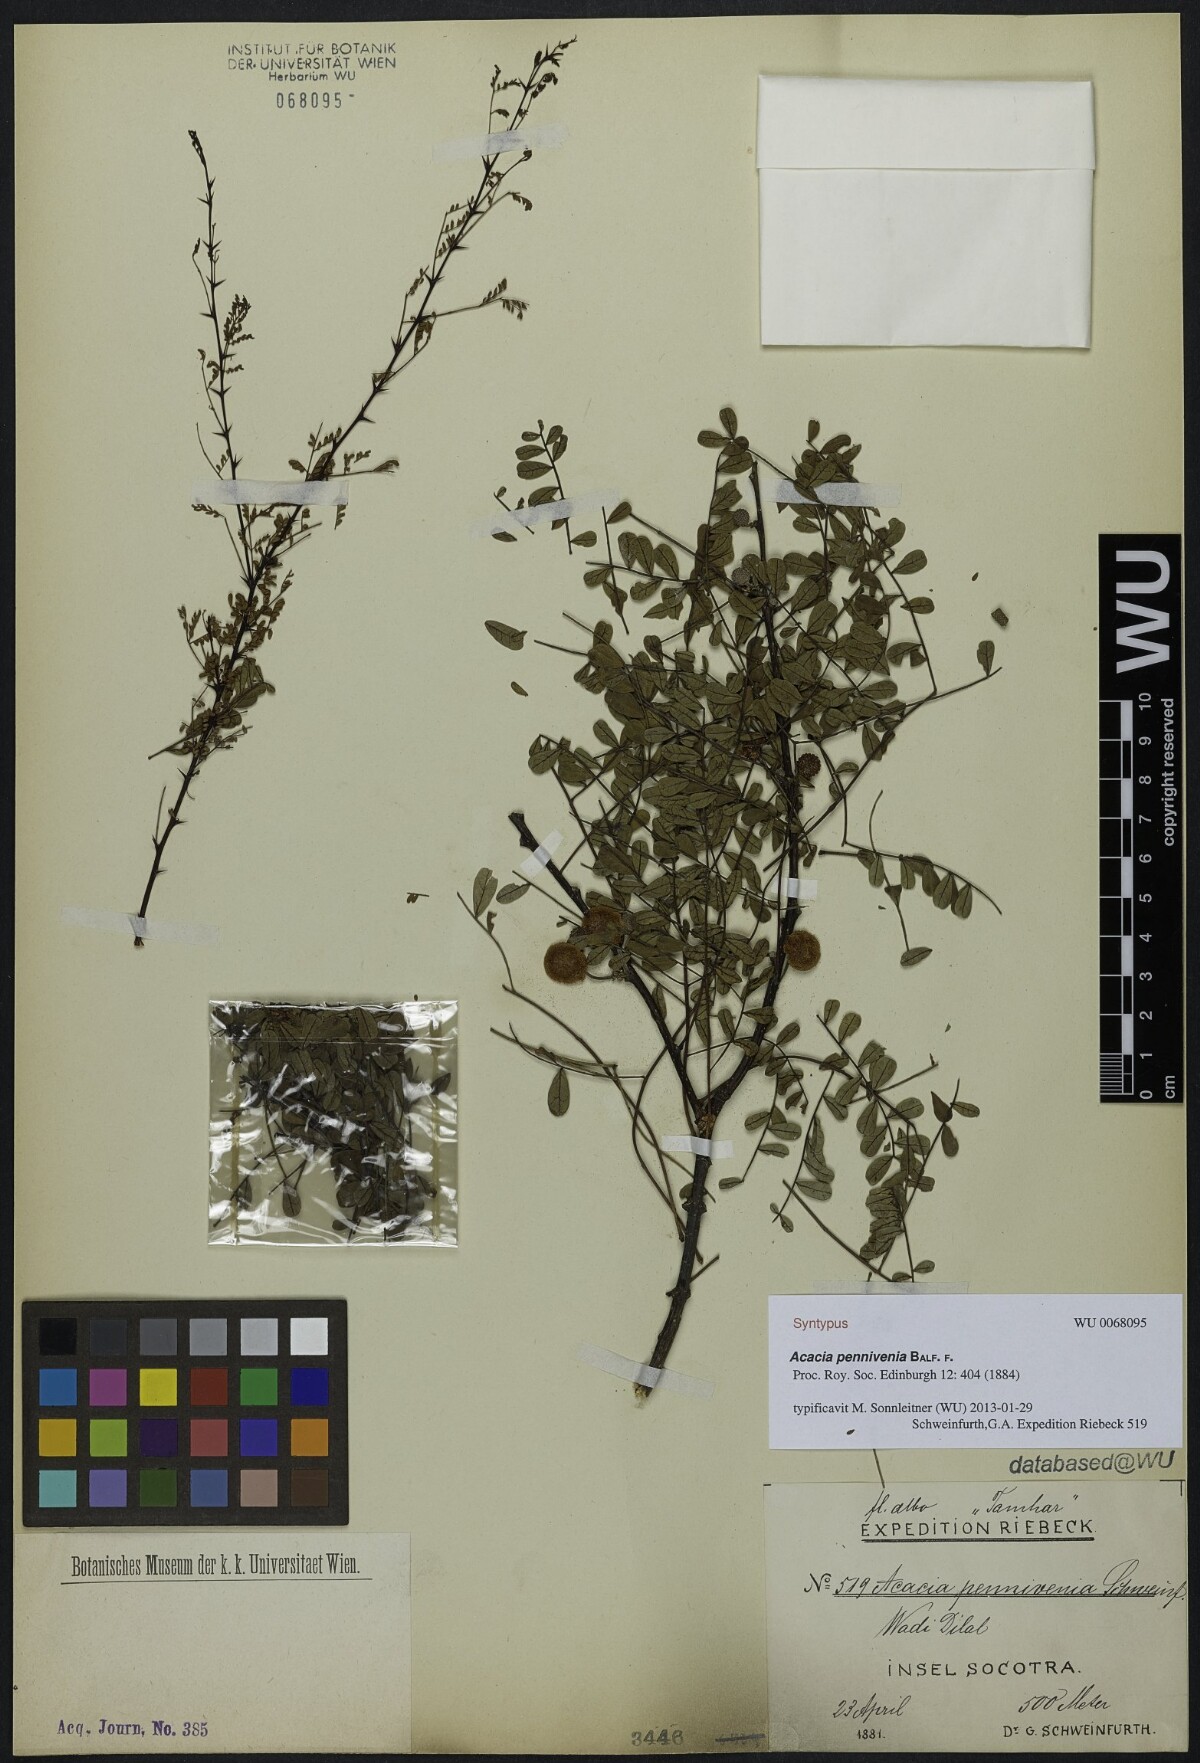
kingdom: Plantae
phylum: Tracheophyta
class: Magnoliopsida
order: Fabales
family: Fabaceae
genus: Vachellia
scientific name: Vachellia pennivenia
